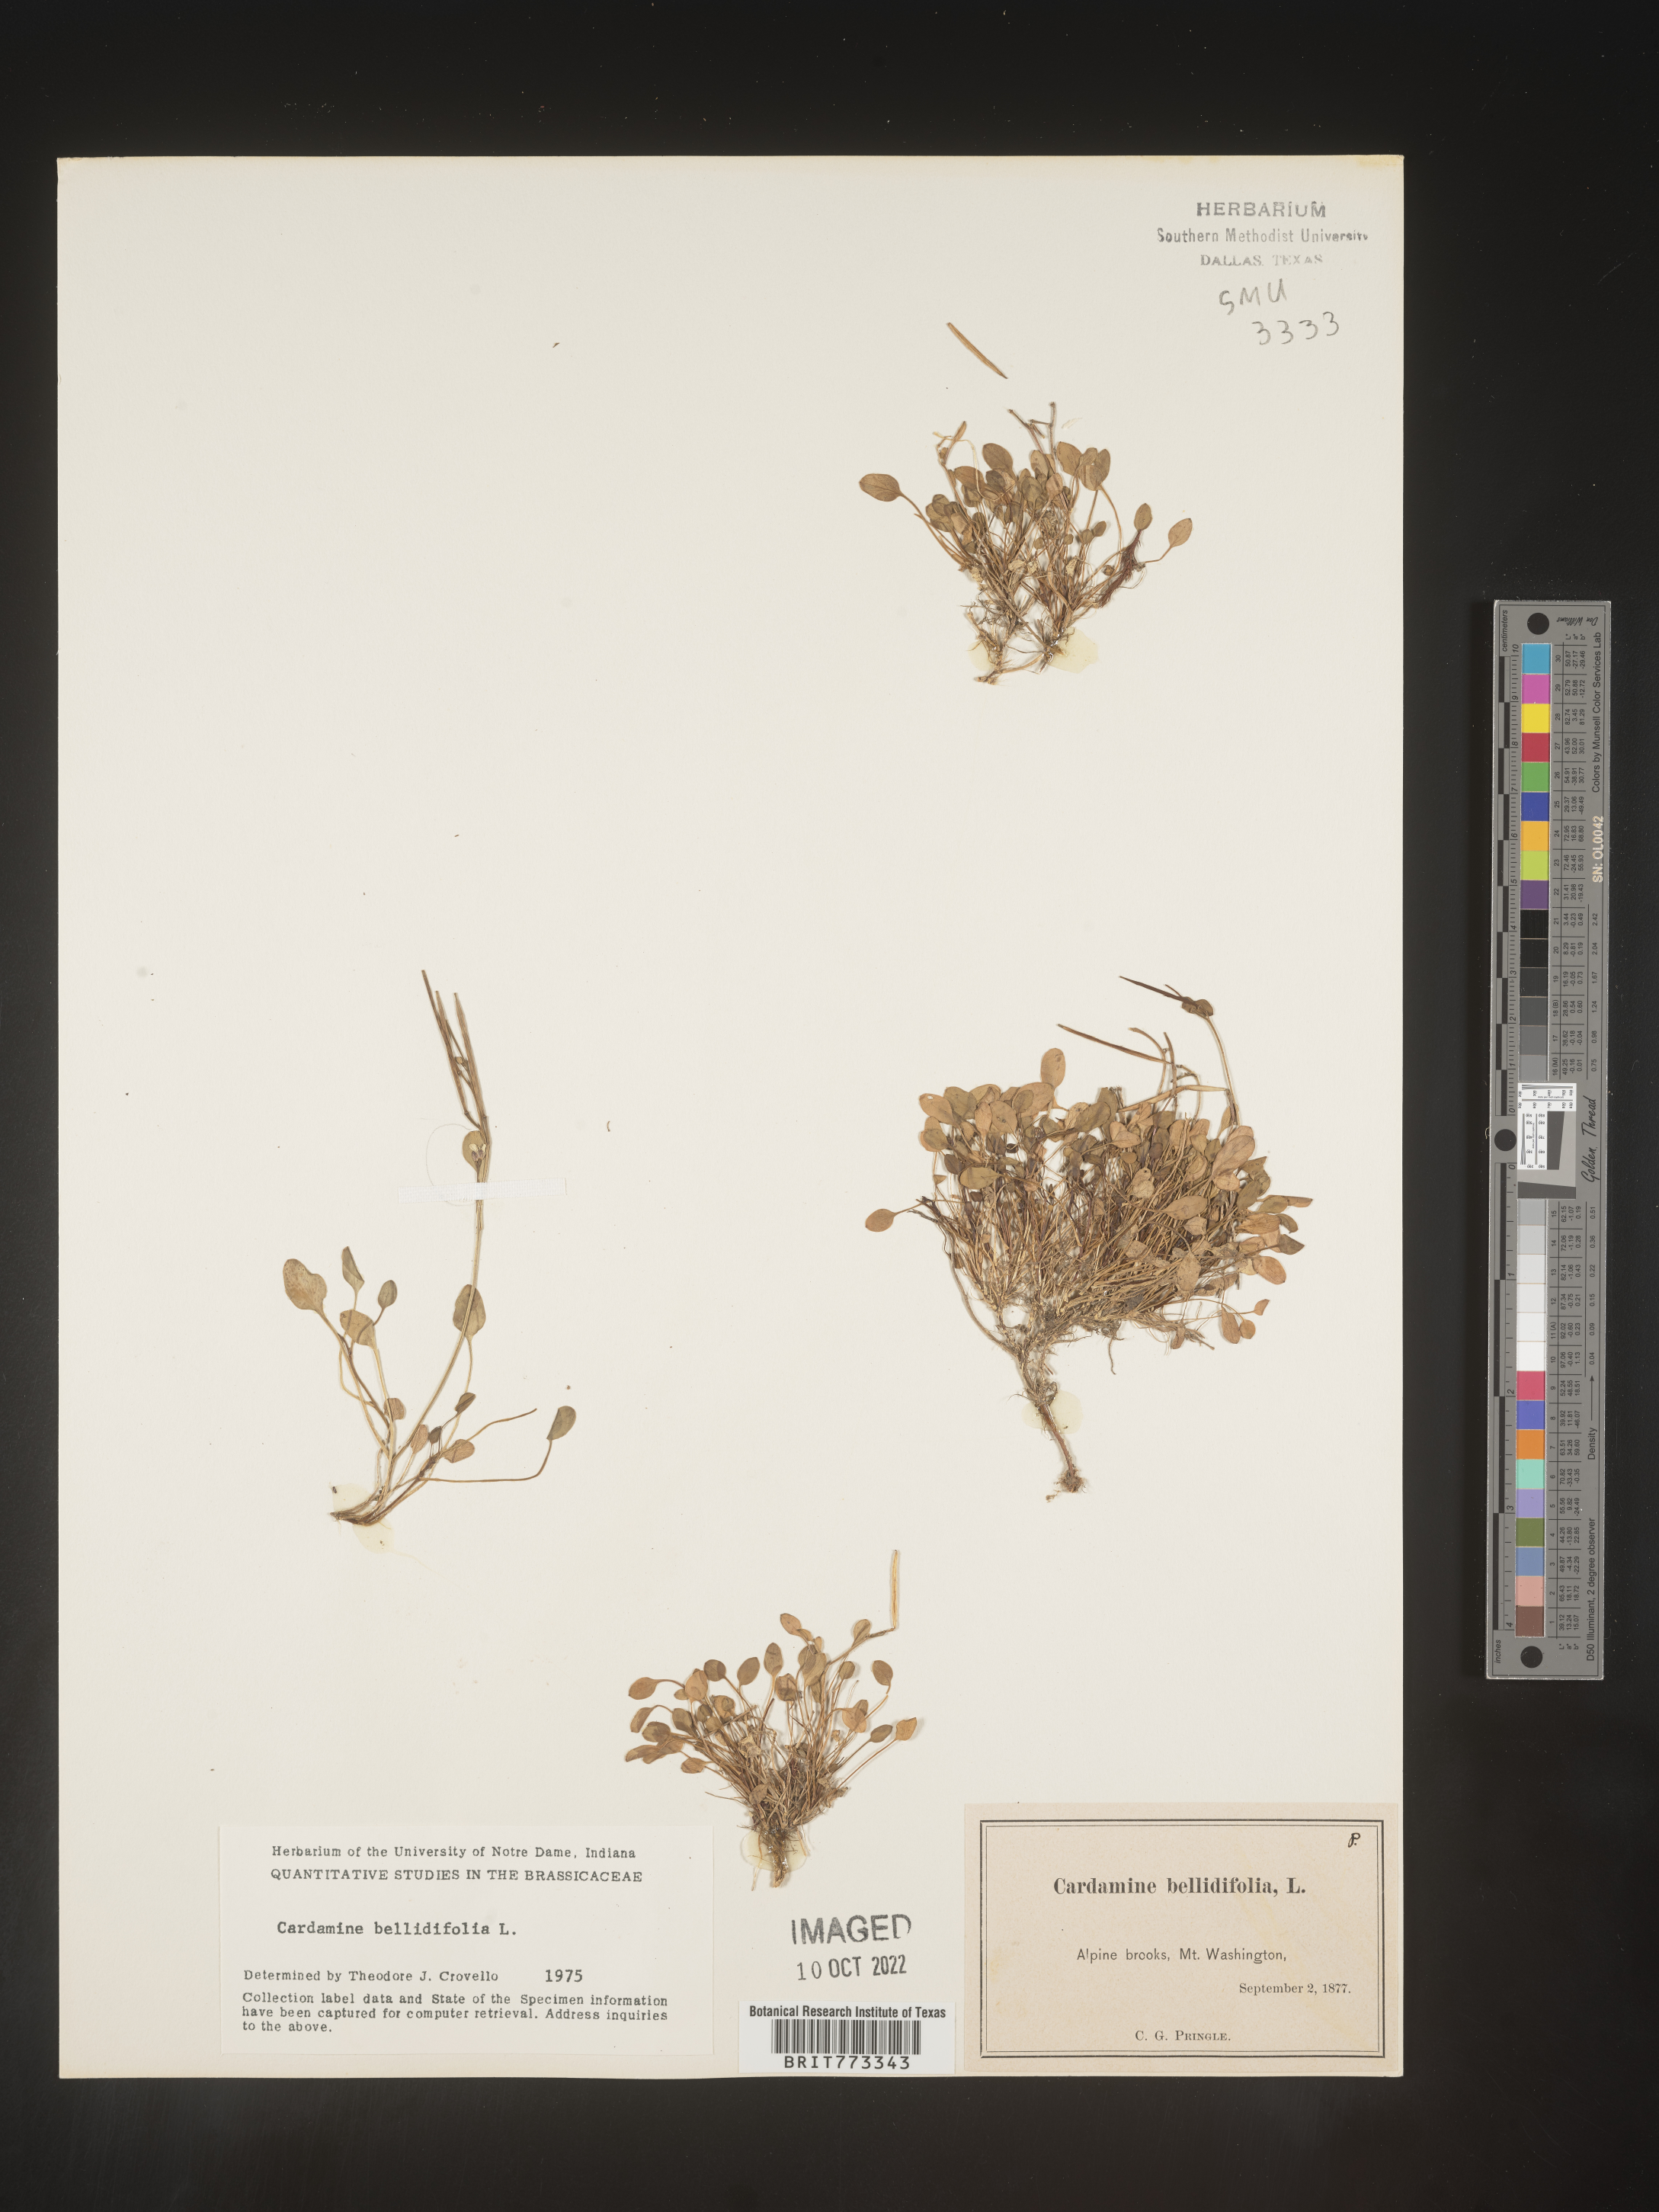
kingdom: Plantae
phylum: Tracheophyta
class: Magnoliopsida
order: Brassicales
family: Brassicaceae
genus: Cardamine
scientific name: Cardamine
